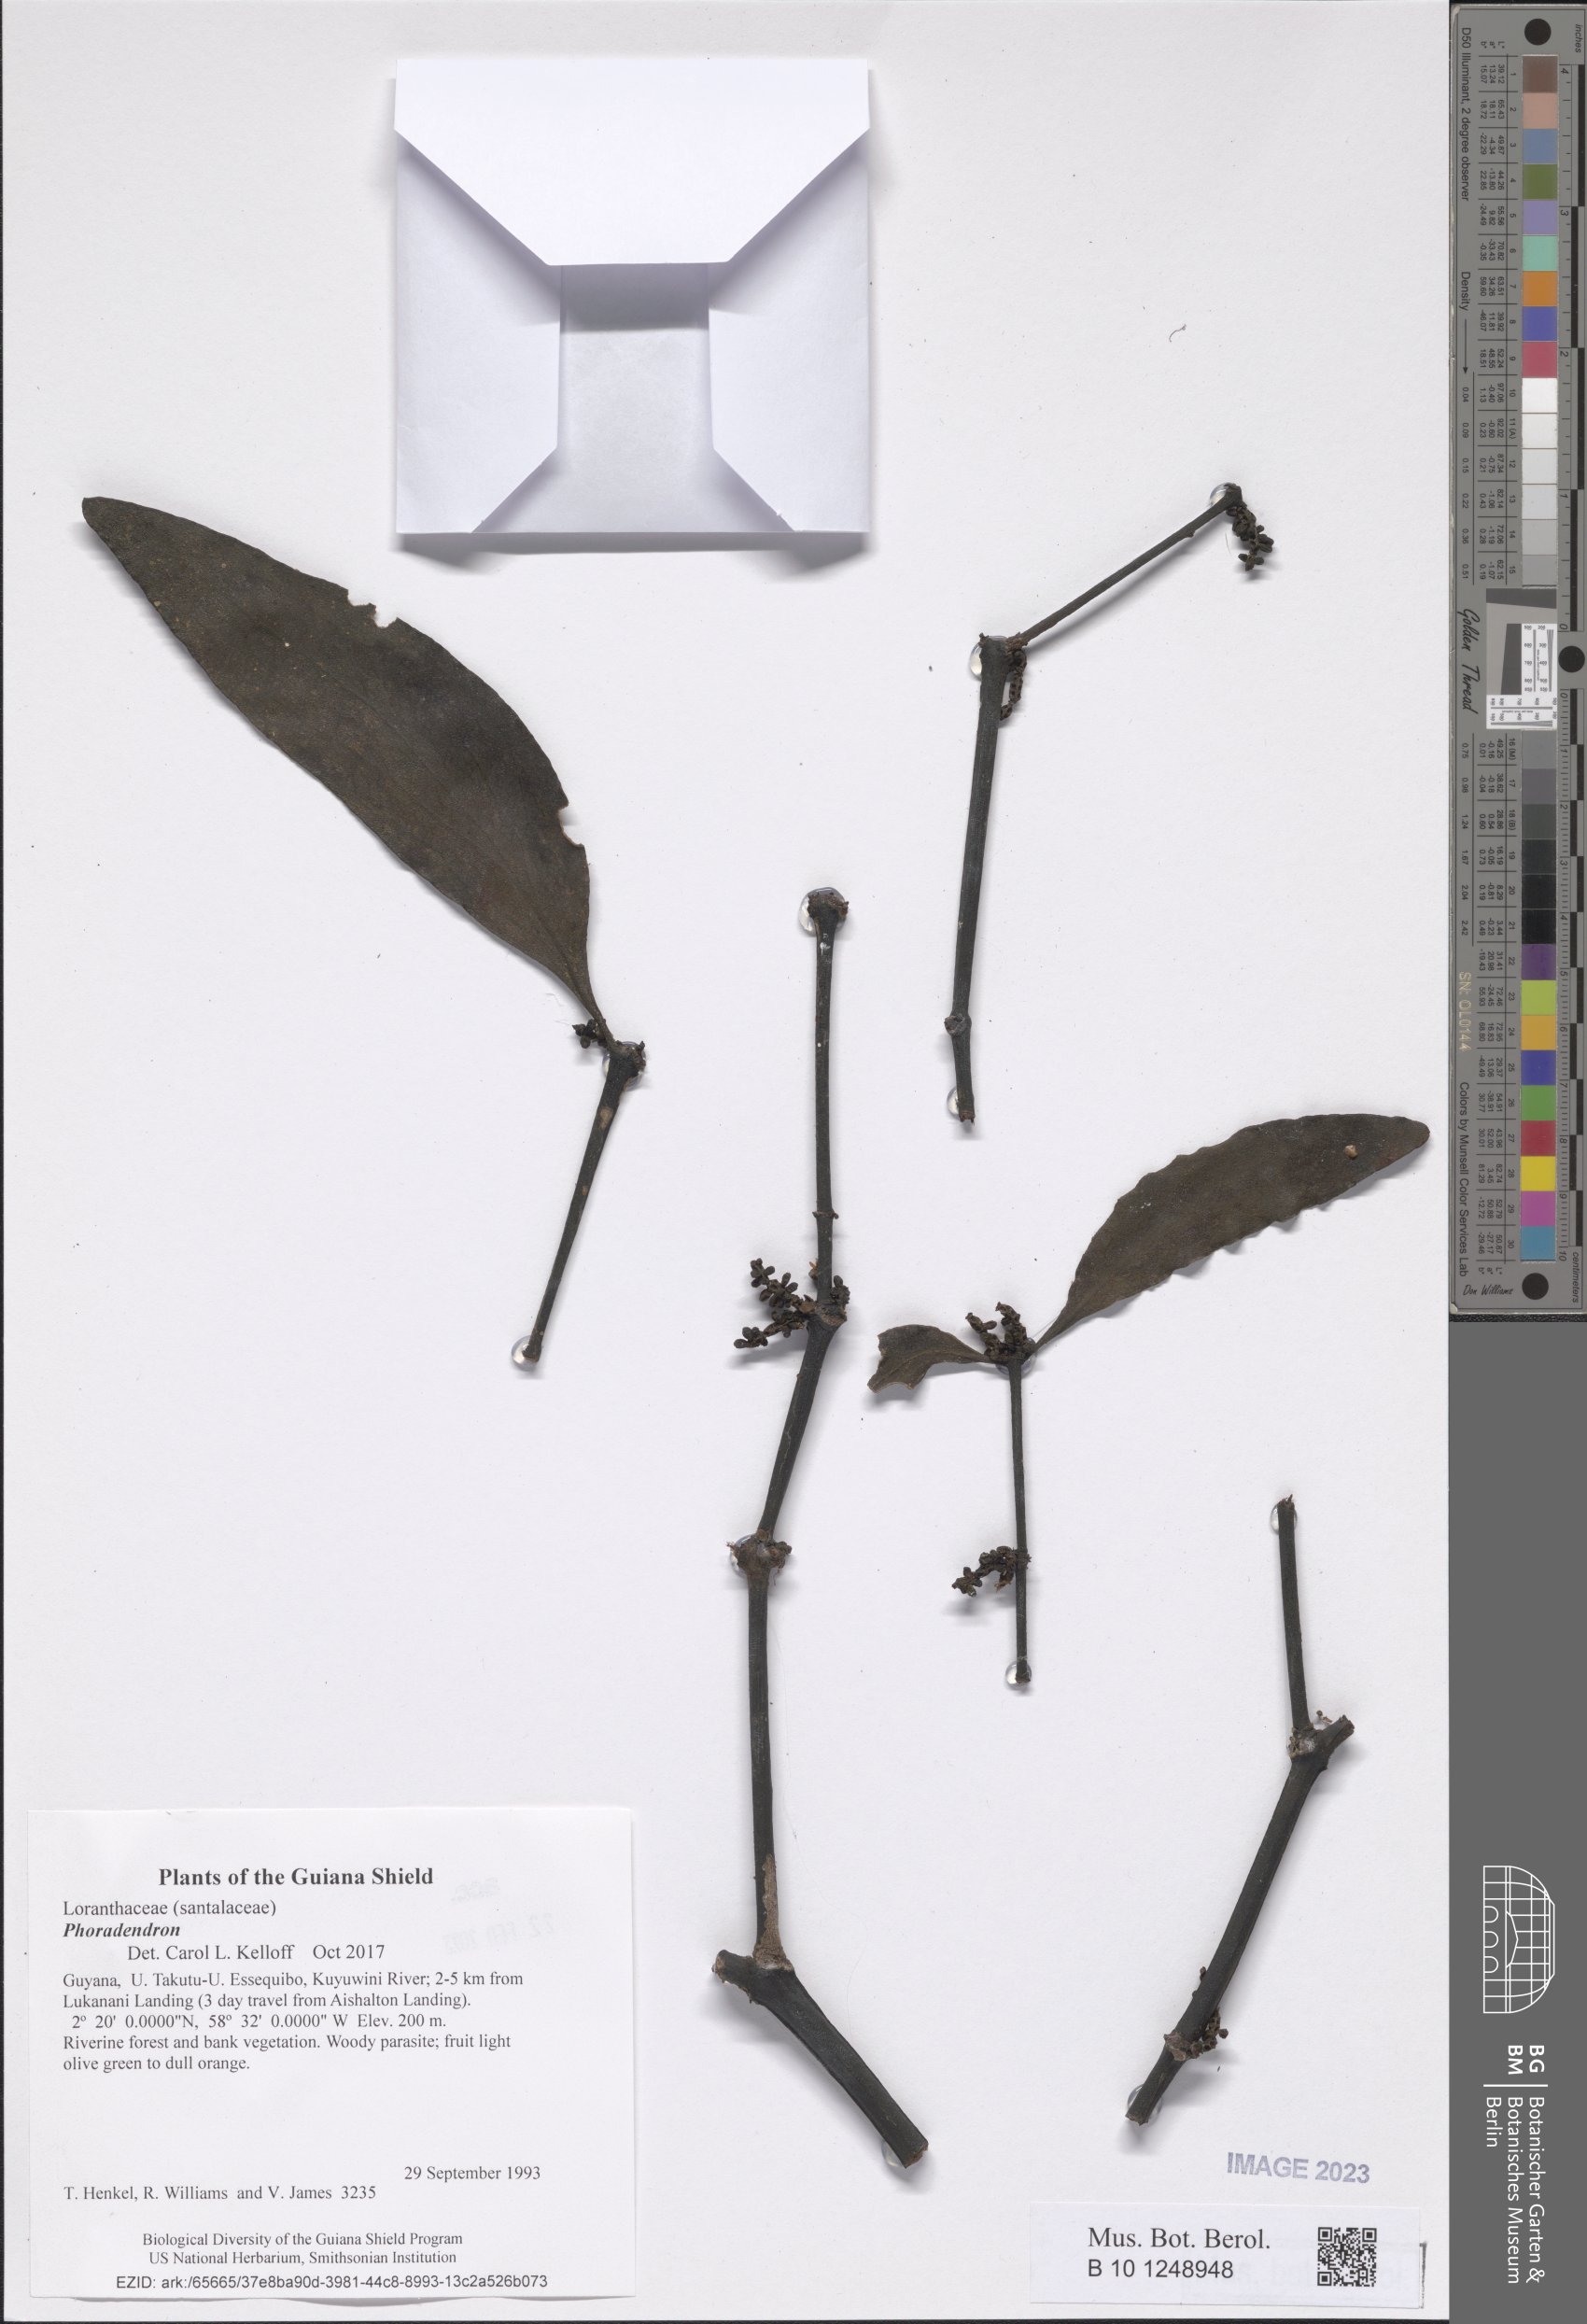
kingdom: Plantae
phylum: Tracheophyta
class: Magnoliopsida
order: Santalales
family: Viscaceae
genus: Phoradendron
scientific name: Phoradendron
